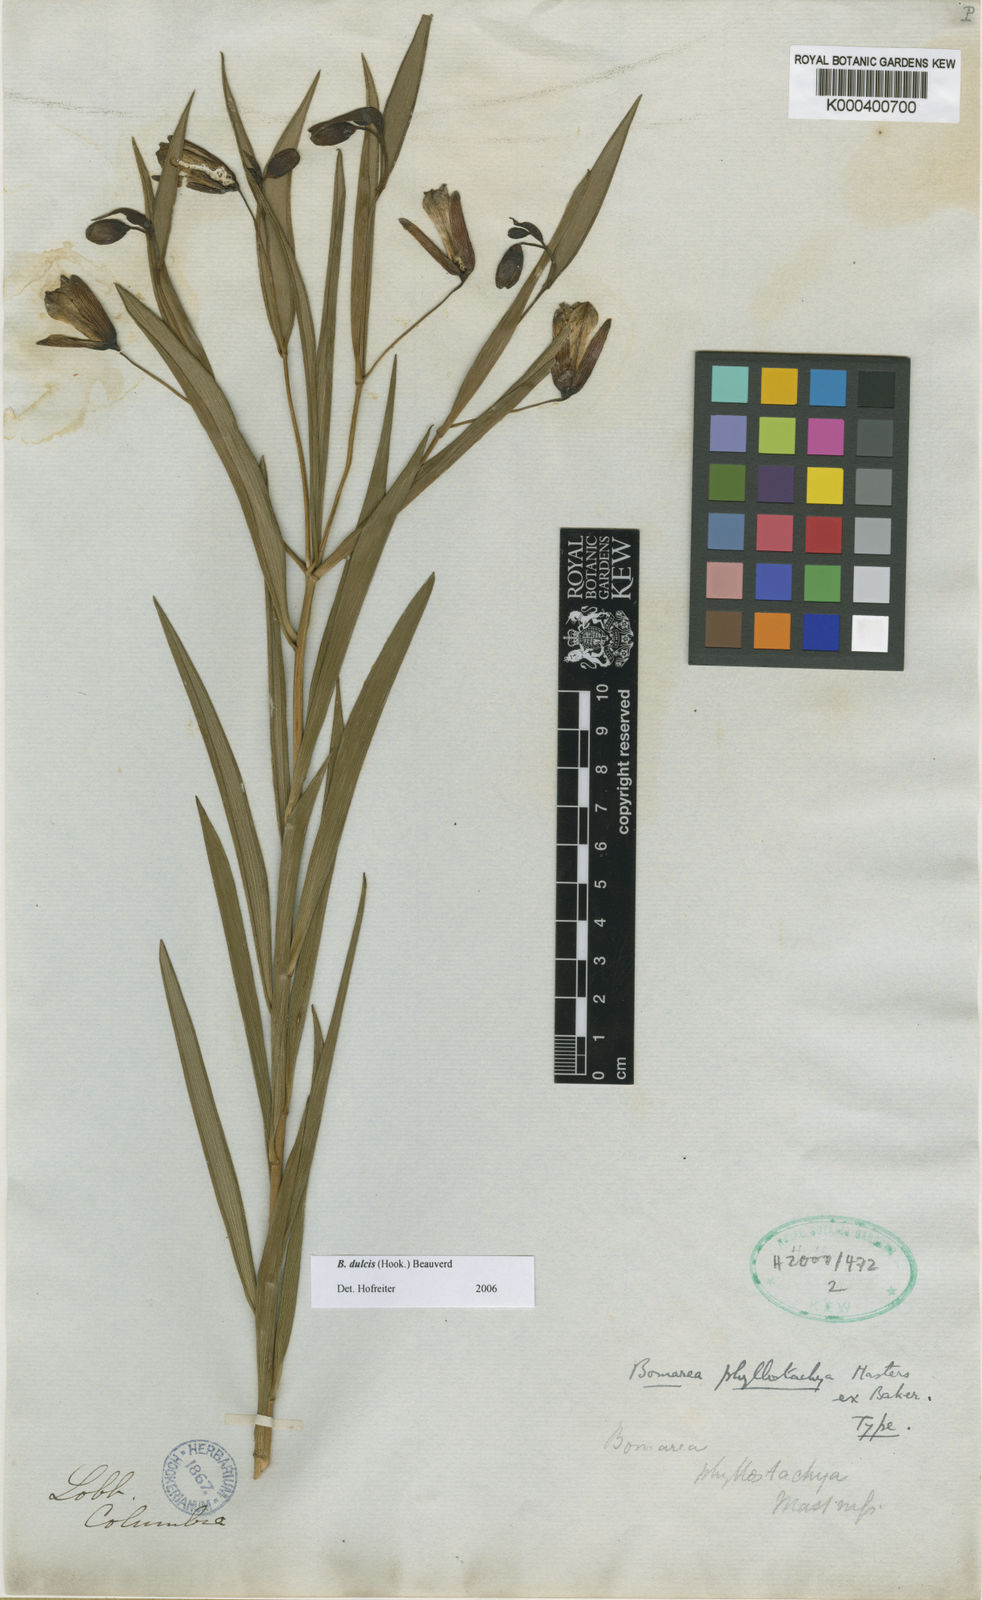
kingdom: Plantae
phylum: Tracheophyta
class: Liliopsida
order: Liliales
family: Alstroemeriaceae
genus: Bomarea
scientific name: Bomarea dulcis
